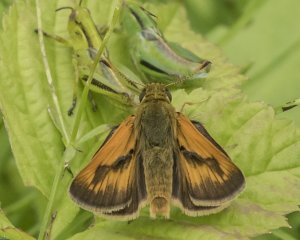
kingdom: Animalia
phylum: Arthropoda
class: Insecta
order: Lepidoptera
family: Hesperiidae
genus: Polites
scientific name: Polites
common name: Long Dash Skipper
